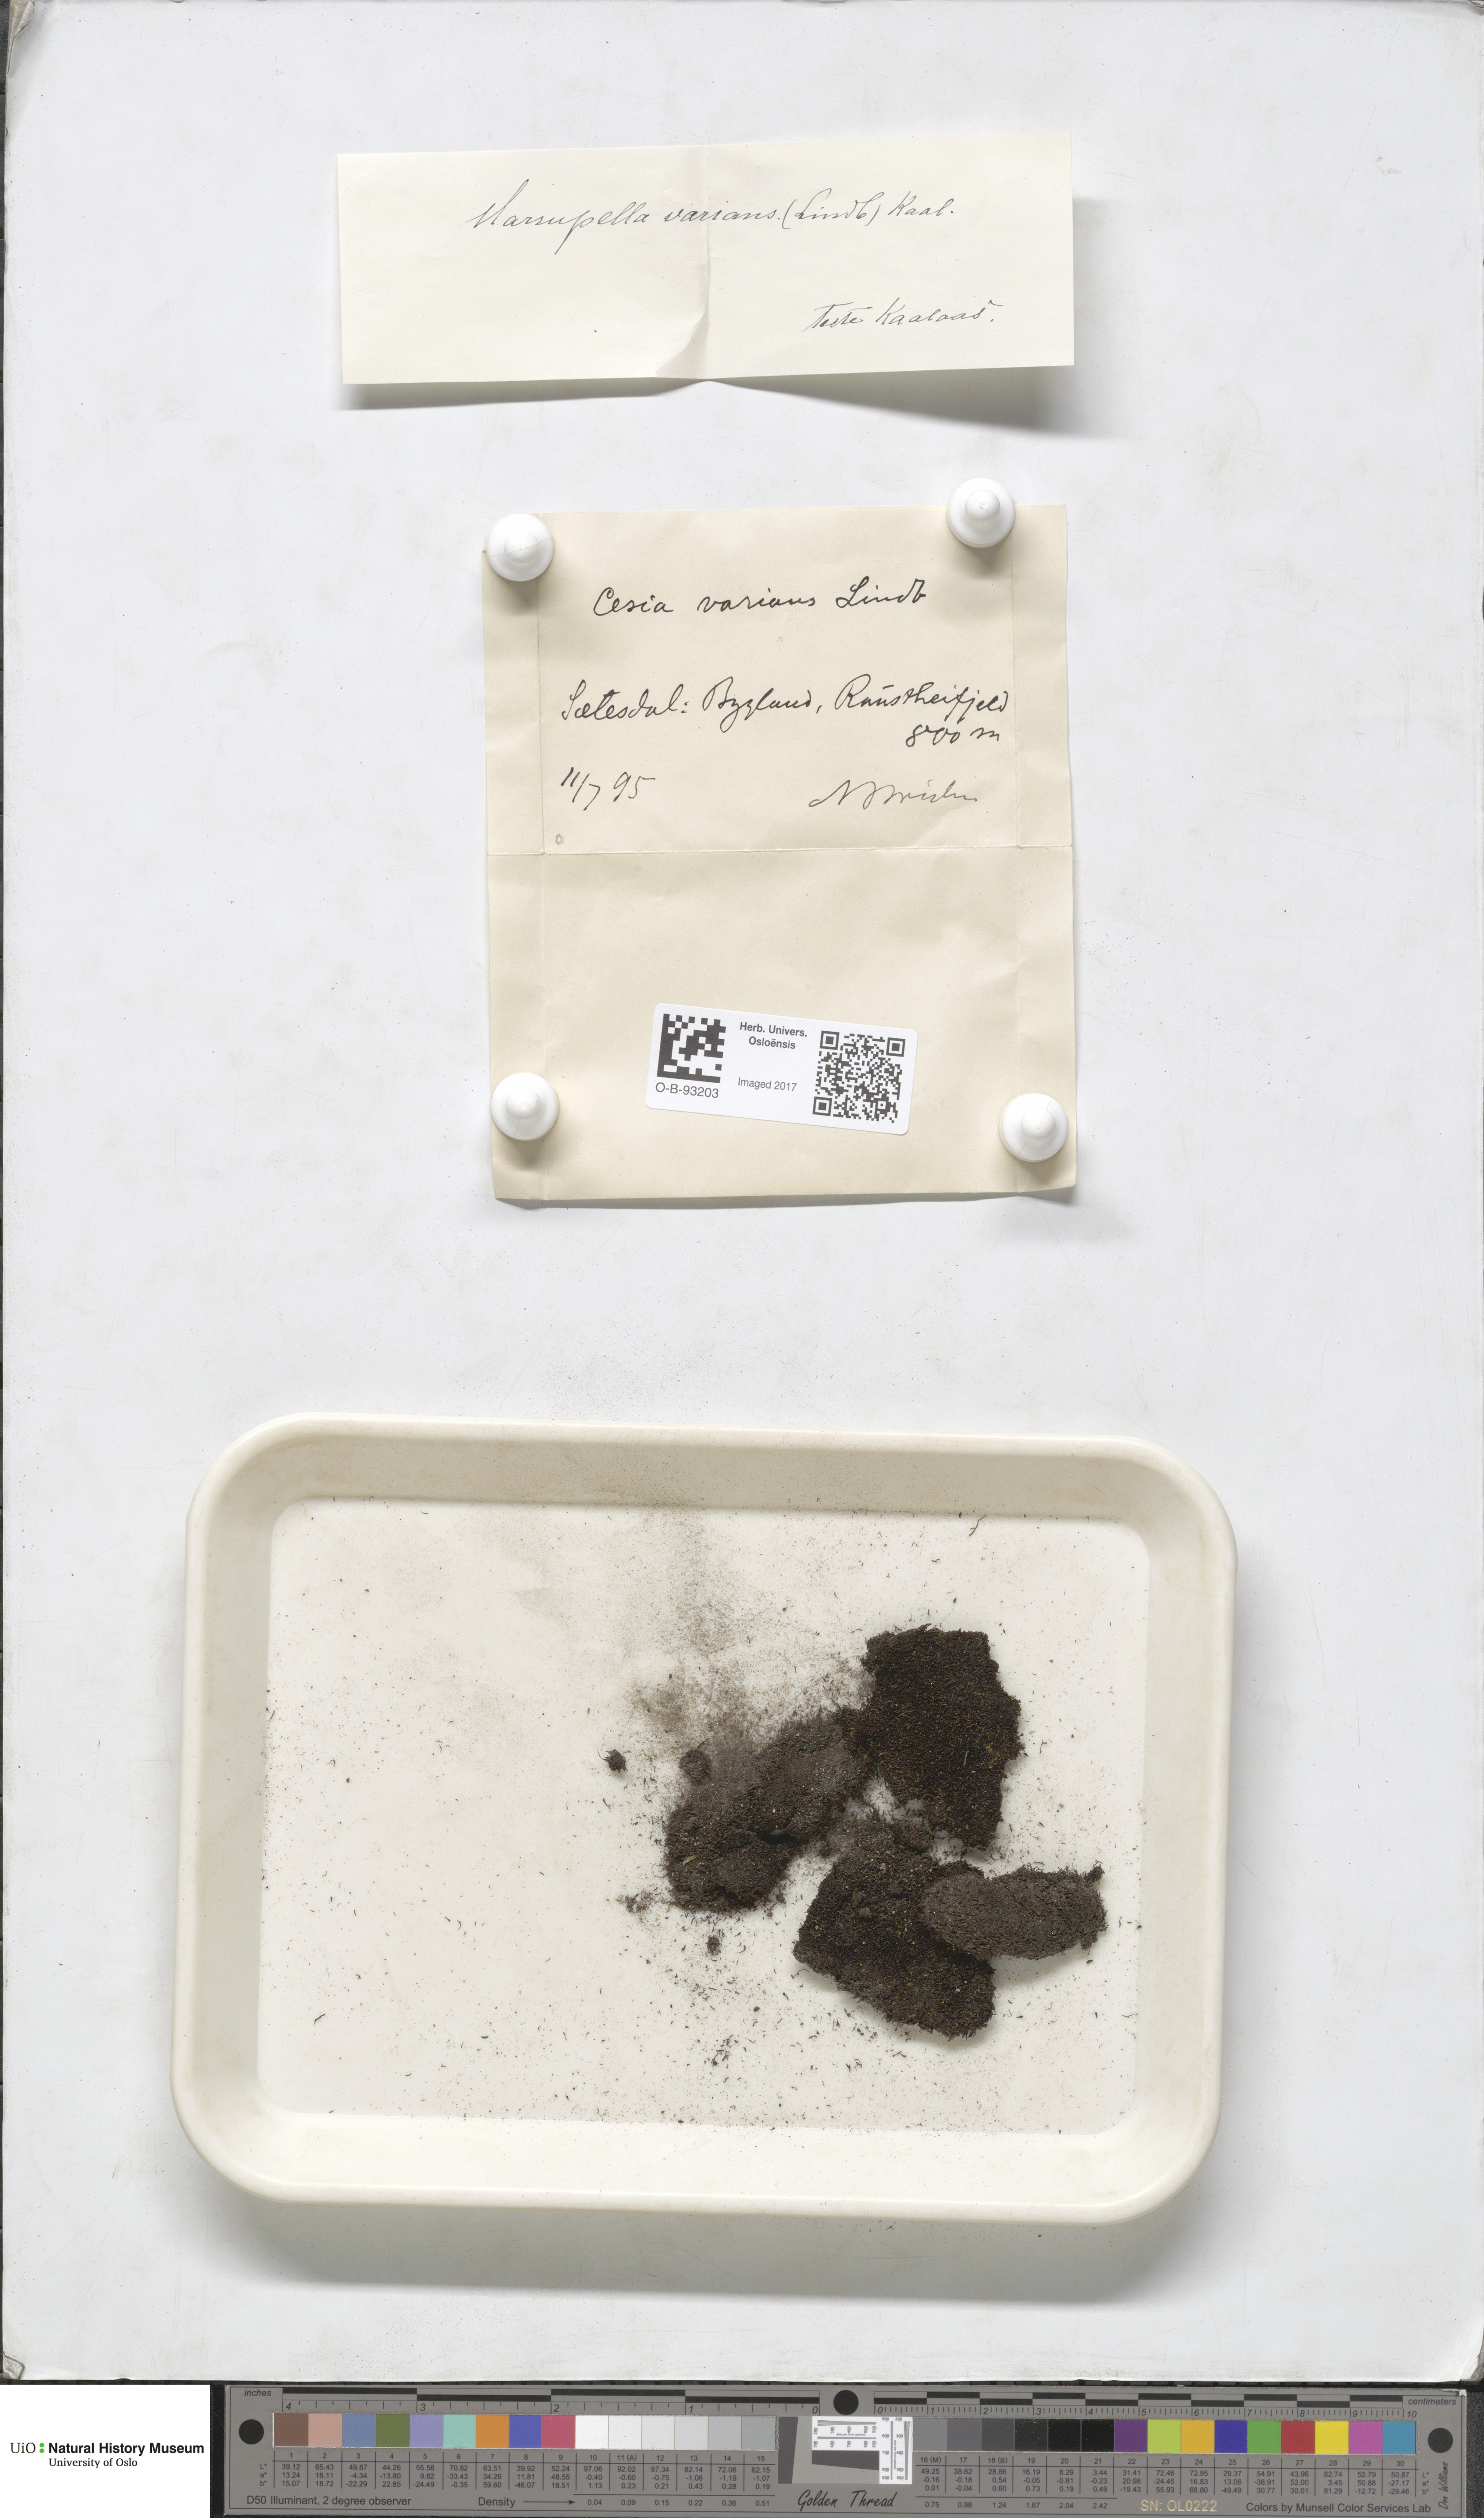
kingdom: Plantae
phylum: Marchantiophyta
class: Jungermanniopsida
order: Jungermanniales
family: Gymnomitriaceae
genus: Gymnomitrion
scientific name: Gymnomitrion brevissimum
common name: Snow rustwort
